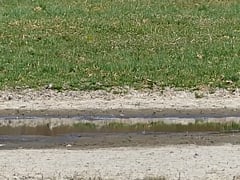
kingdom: Animalia
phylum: Chordata
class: Aves
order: Charadriiformes
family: Charadriidae
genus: Charadrius
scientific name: Charadrius dubius
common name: Little ringed plover
